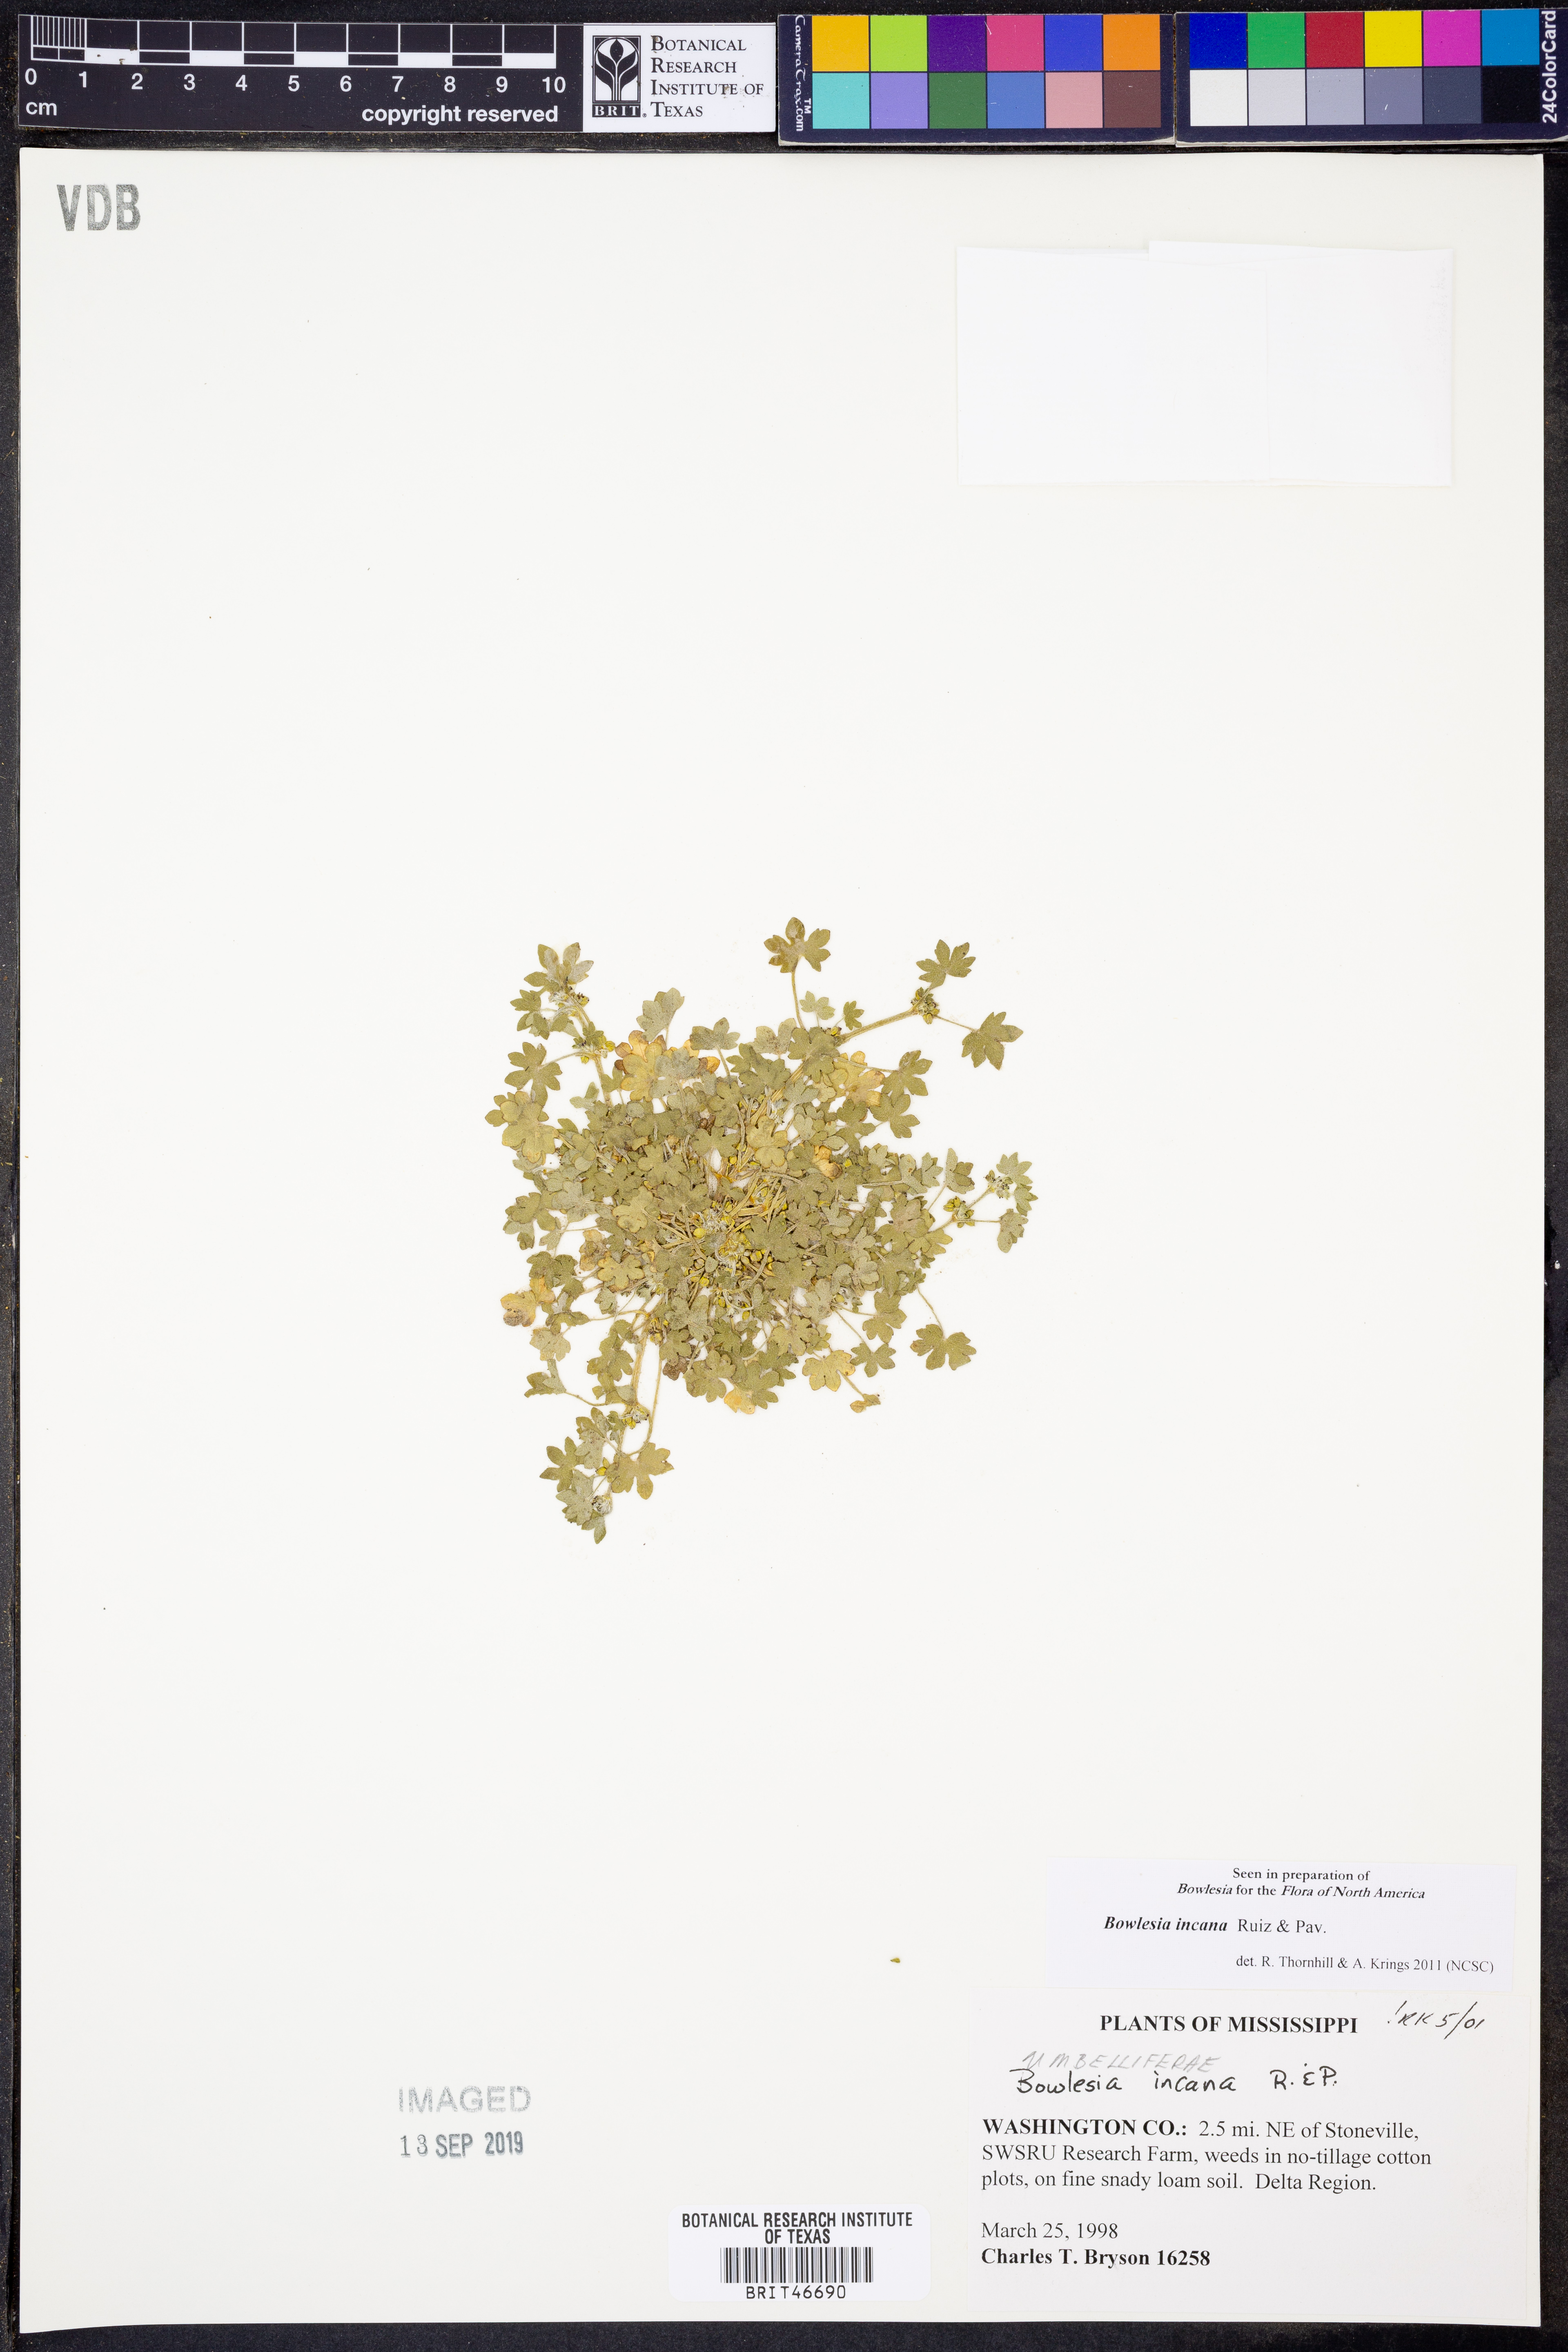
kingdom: Plantae
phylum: Tracheophyta
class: Magnoliopsida
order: Apiales
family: Apiaceae
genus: Bowlesia
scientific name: Bowlesia incana
